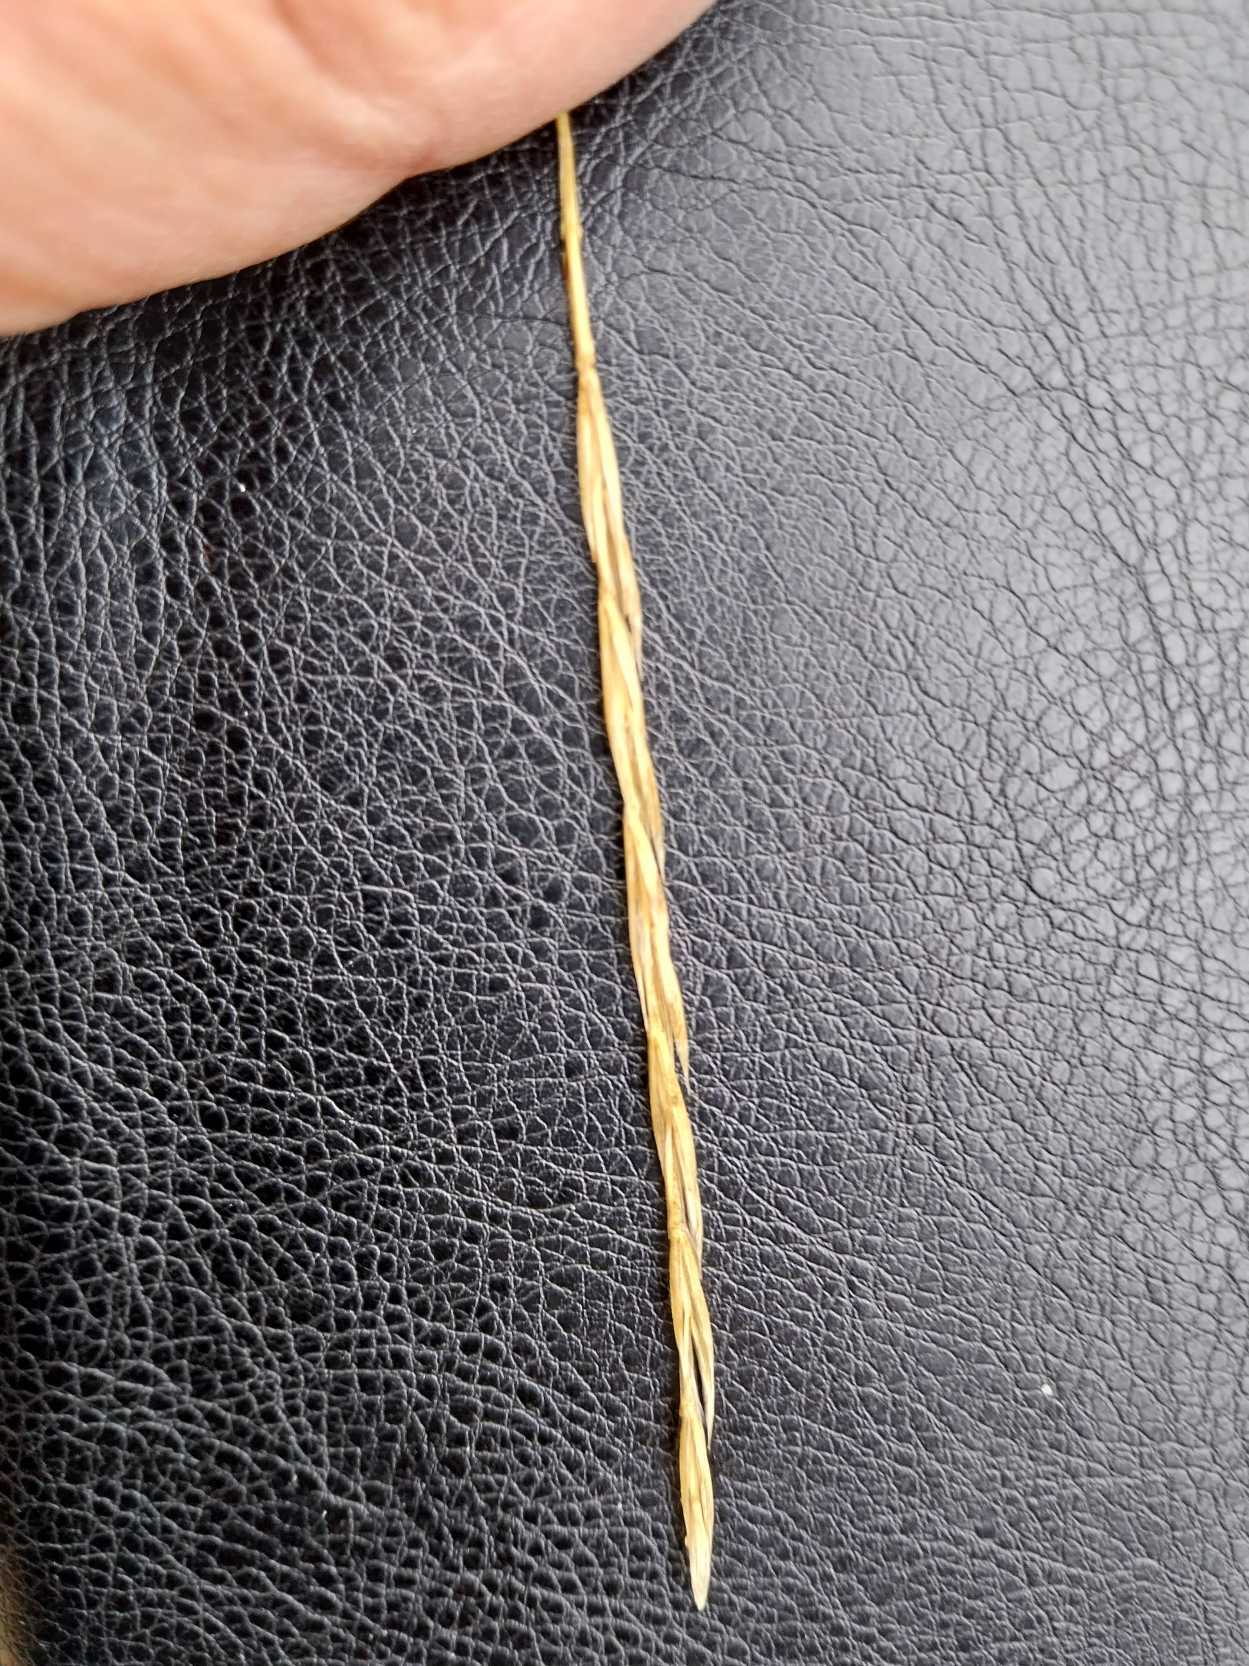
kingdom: Plantae
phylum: Tracheophyta
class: Liliopsida
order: Poales
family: Poaceae
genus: Elymus
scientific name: Elymus caninus
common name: Hundekvik
